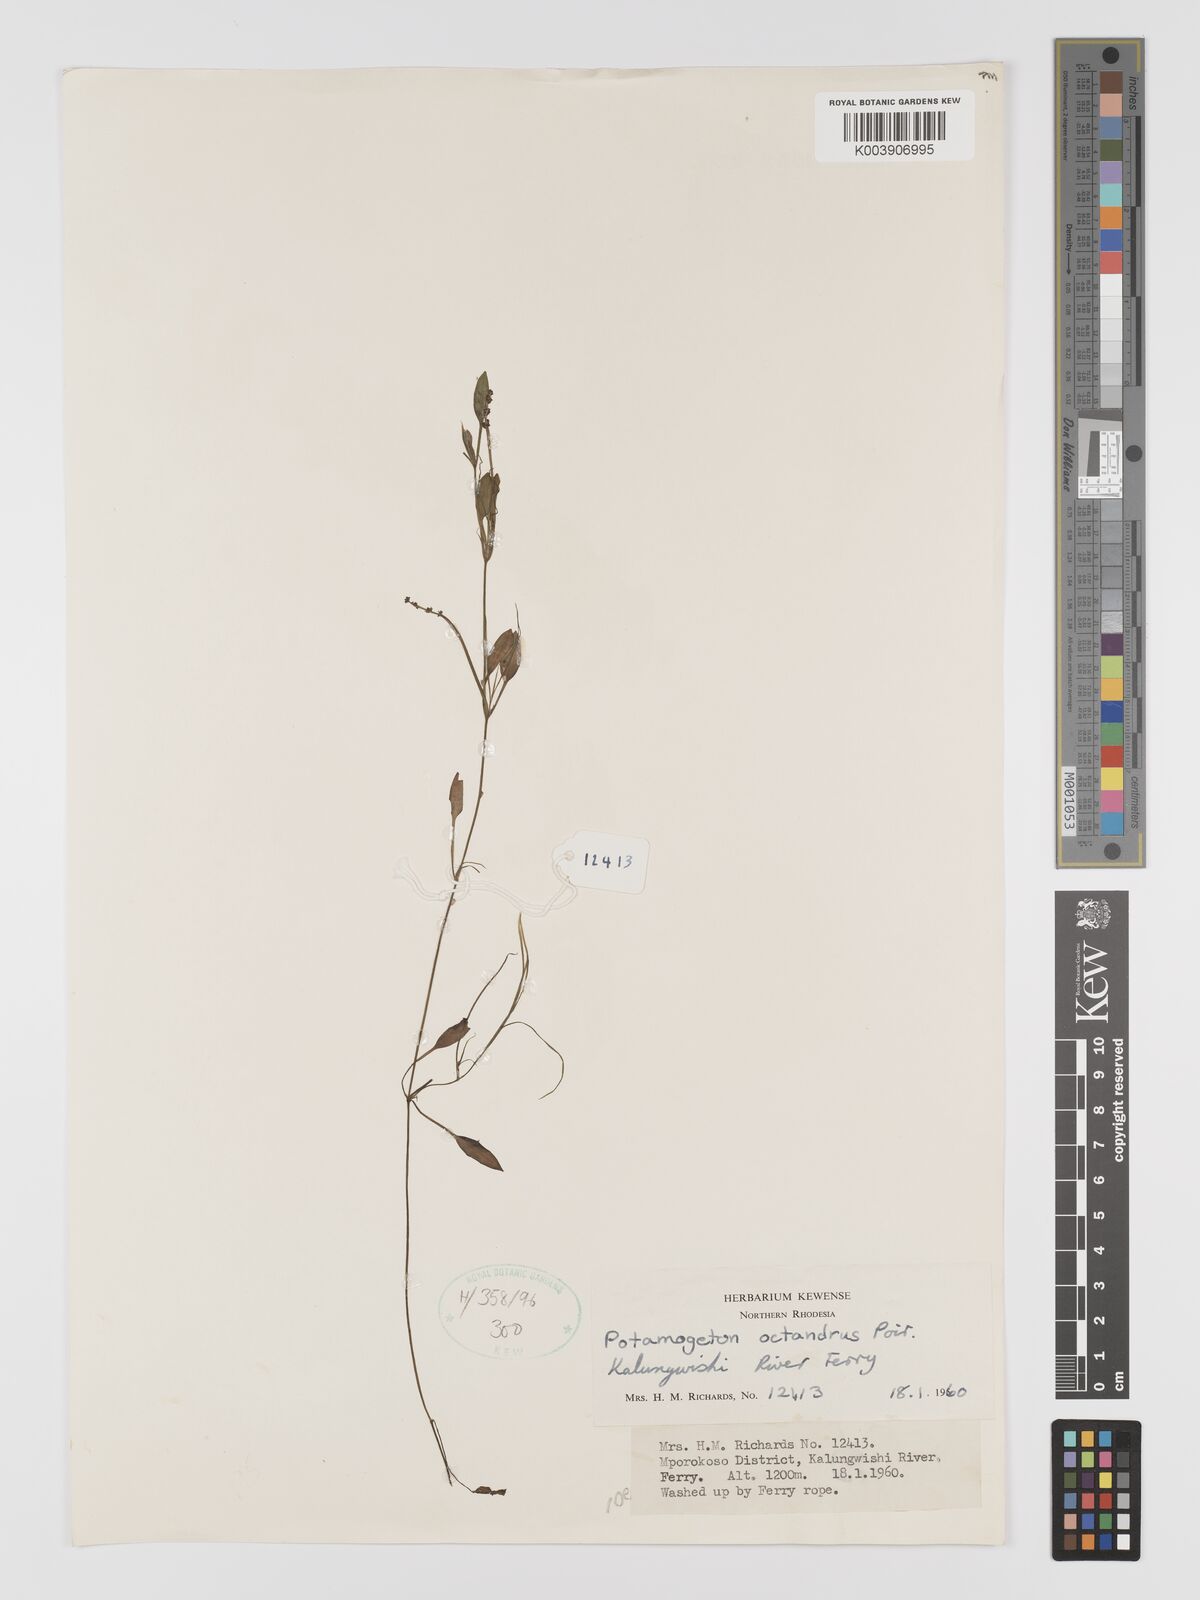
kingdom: Plantae
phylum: Tracheophyta
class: Liliopsida
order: Alismatales
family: Potamogetonaceae
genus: Potamogeton
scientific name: Potamogeton octandrus
